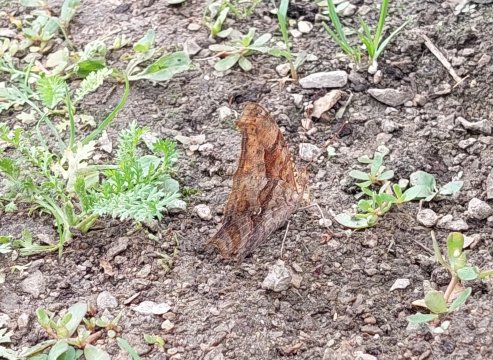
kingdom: Animalia
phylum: Arthropoda
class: Insecta
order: Lepidoptera
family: Nymphalidae
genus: Polygonia
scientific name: Polygonia interrogationis
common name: Question Mark
